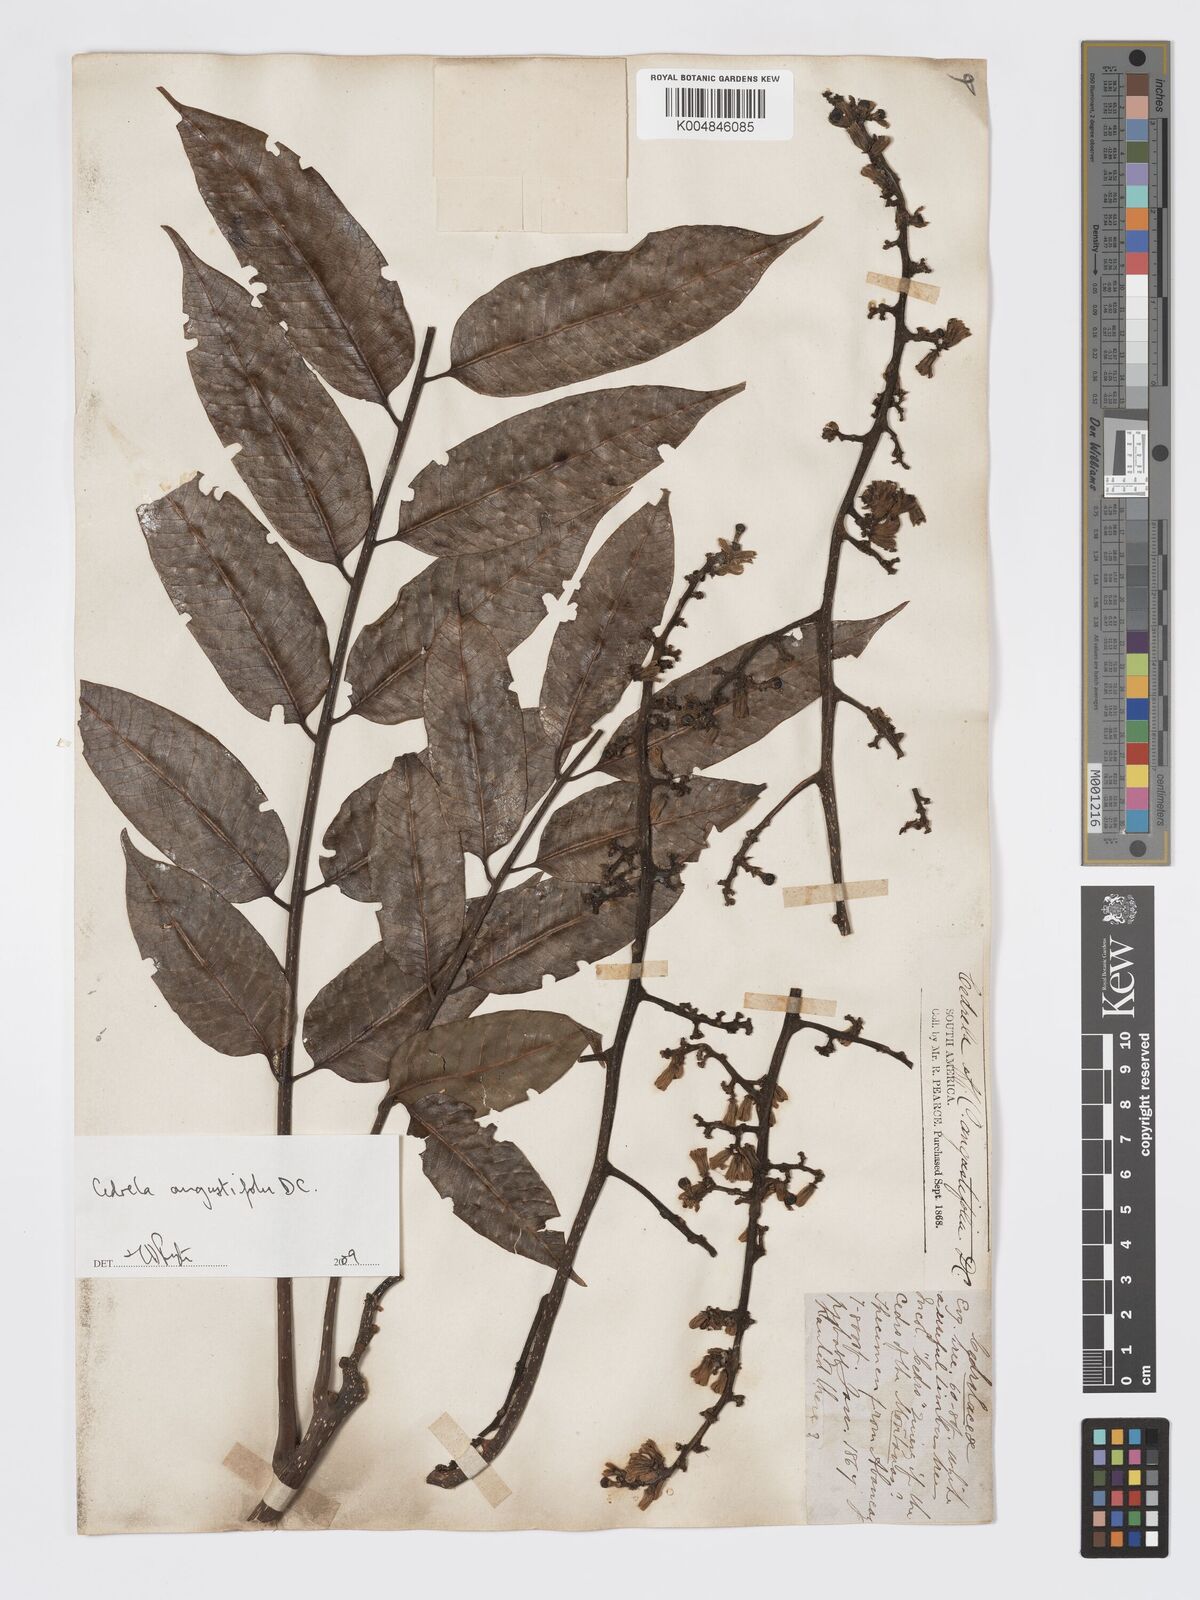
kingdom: Plantae
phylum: Tracheophyta
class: Magnoliopsida
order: Sapindales
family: Meliaceae
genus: Cedrela
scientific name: Cedrela odorata
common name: Red cedar
